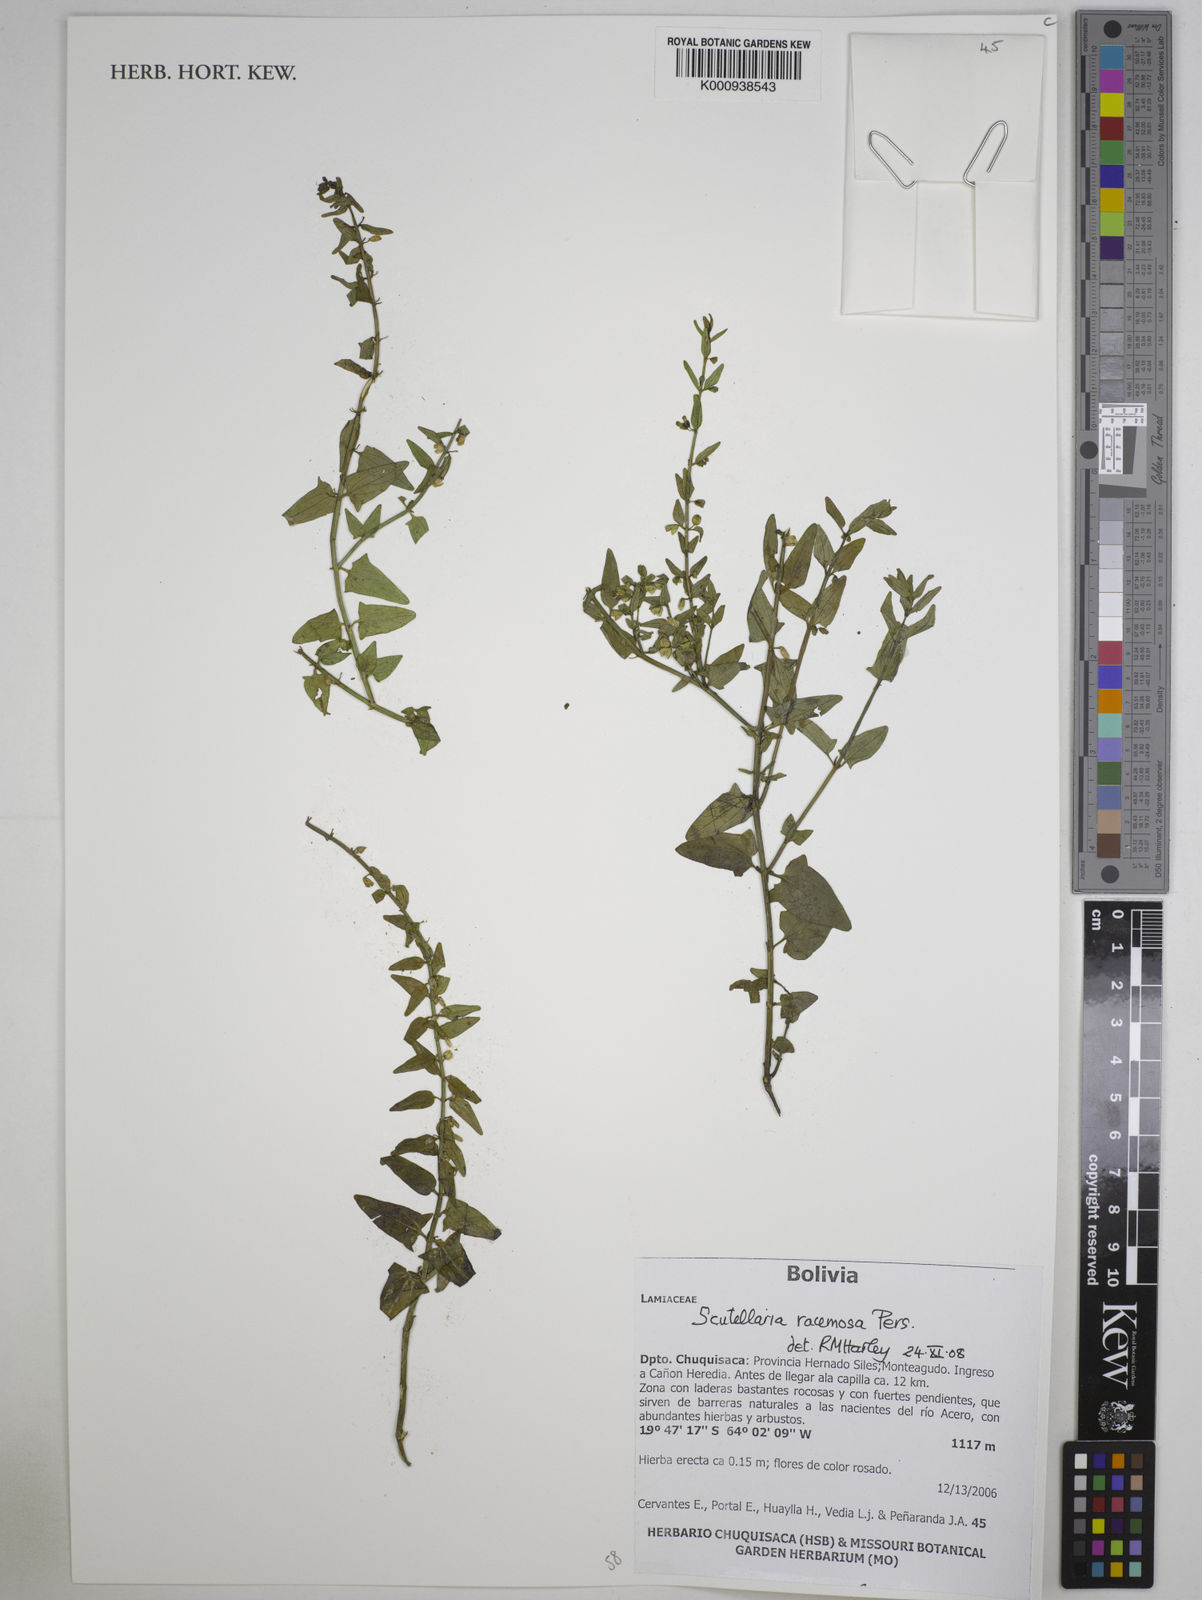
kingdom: Plantae
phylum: Tracheophyta
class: Magnoliopsida
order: Lamiales
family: Lamiaceae
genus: Scutellaria
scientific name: Scutellaria racemosa
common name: South american skullcap
